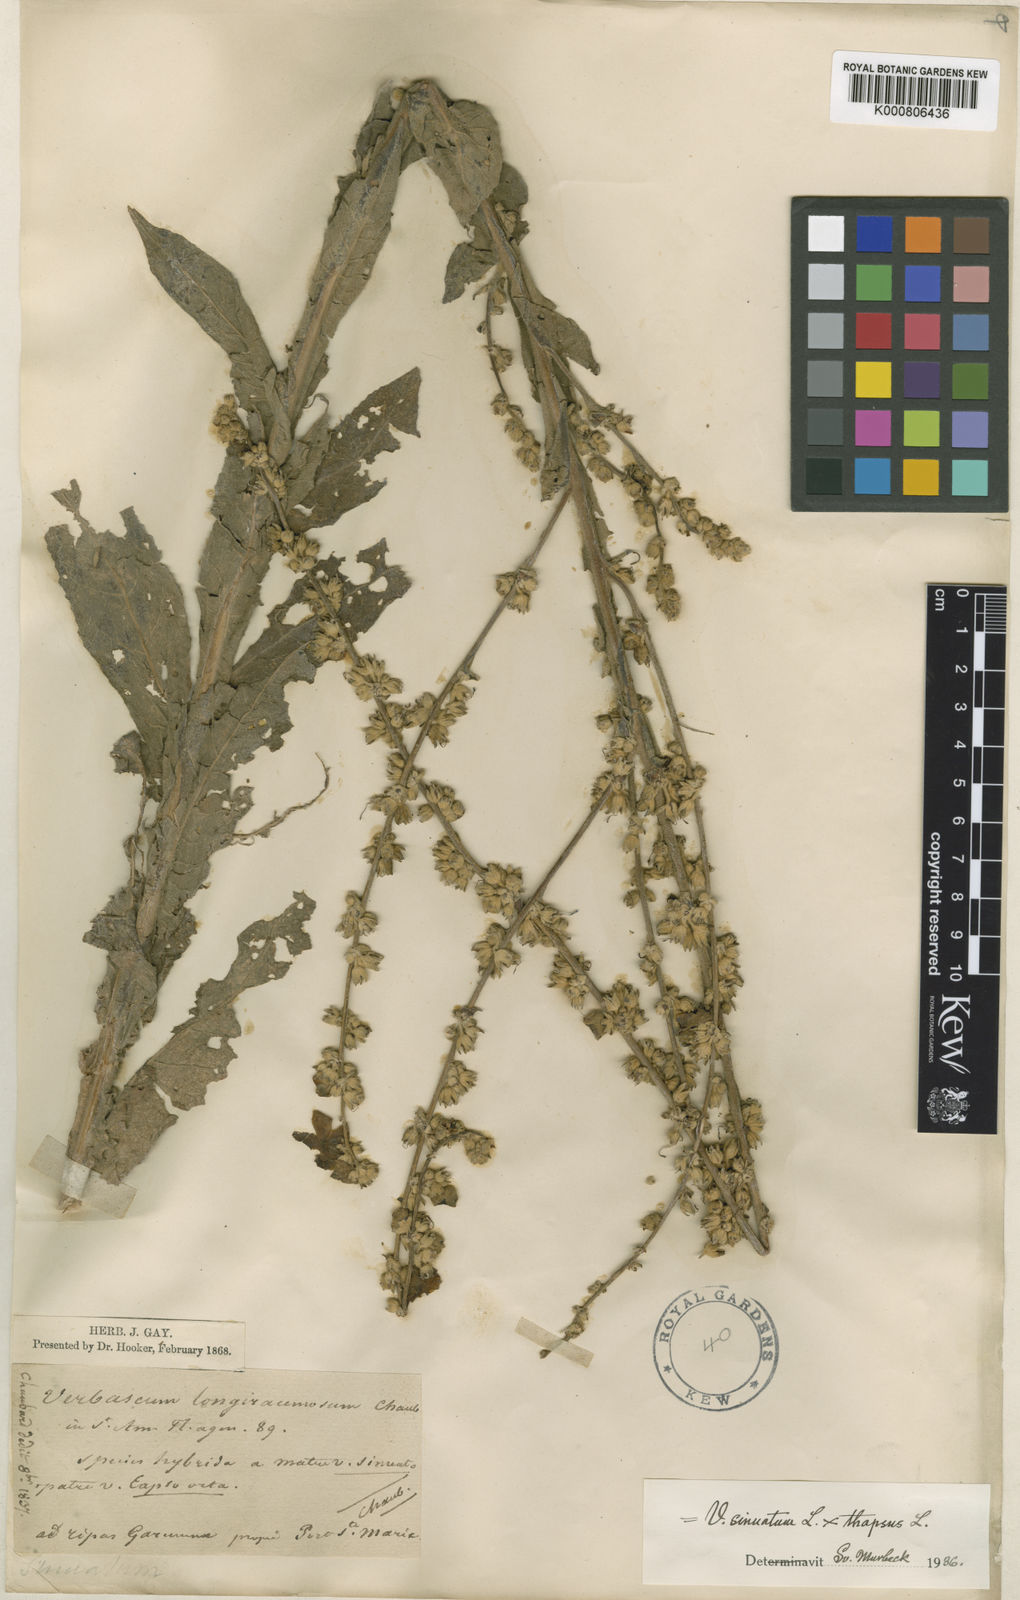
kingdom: Plantae
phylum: Tracheophyta
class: Magnoliopsida
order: Lamiales
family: Scrophulariaceae
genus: Verbascum
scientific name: Verbascum sinuatum
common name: Wavyleaf mullein
